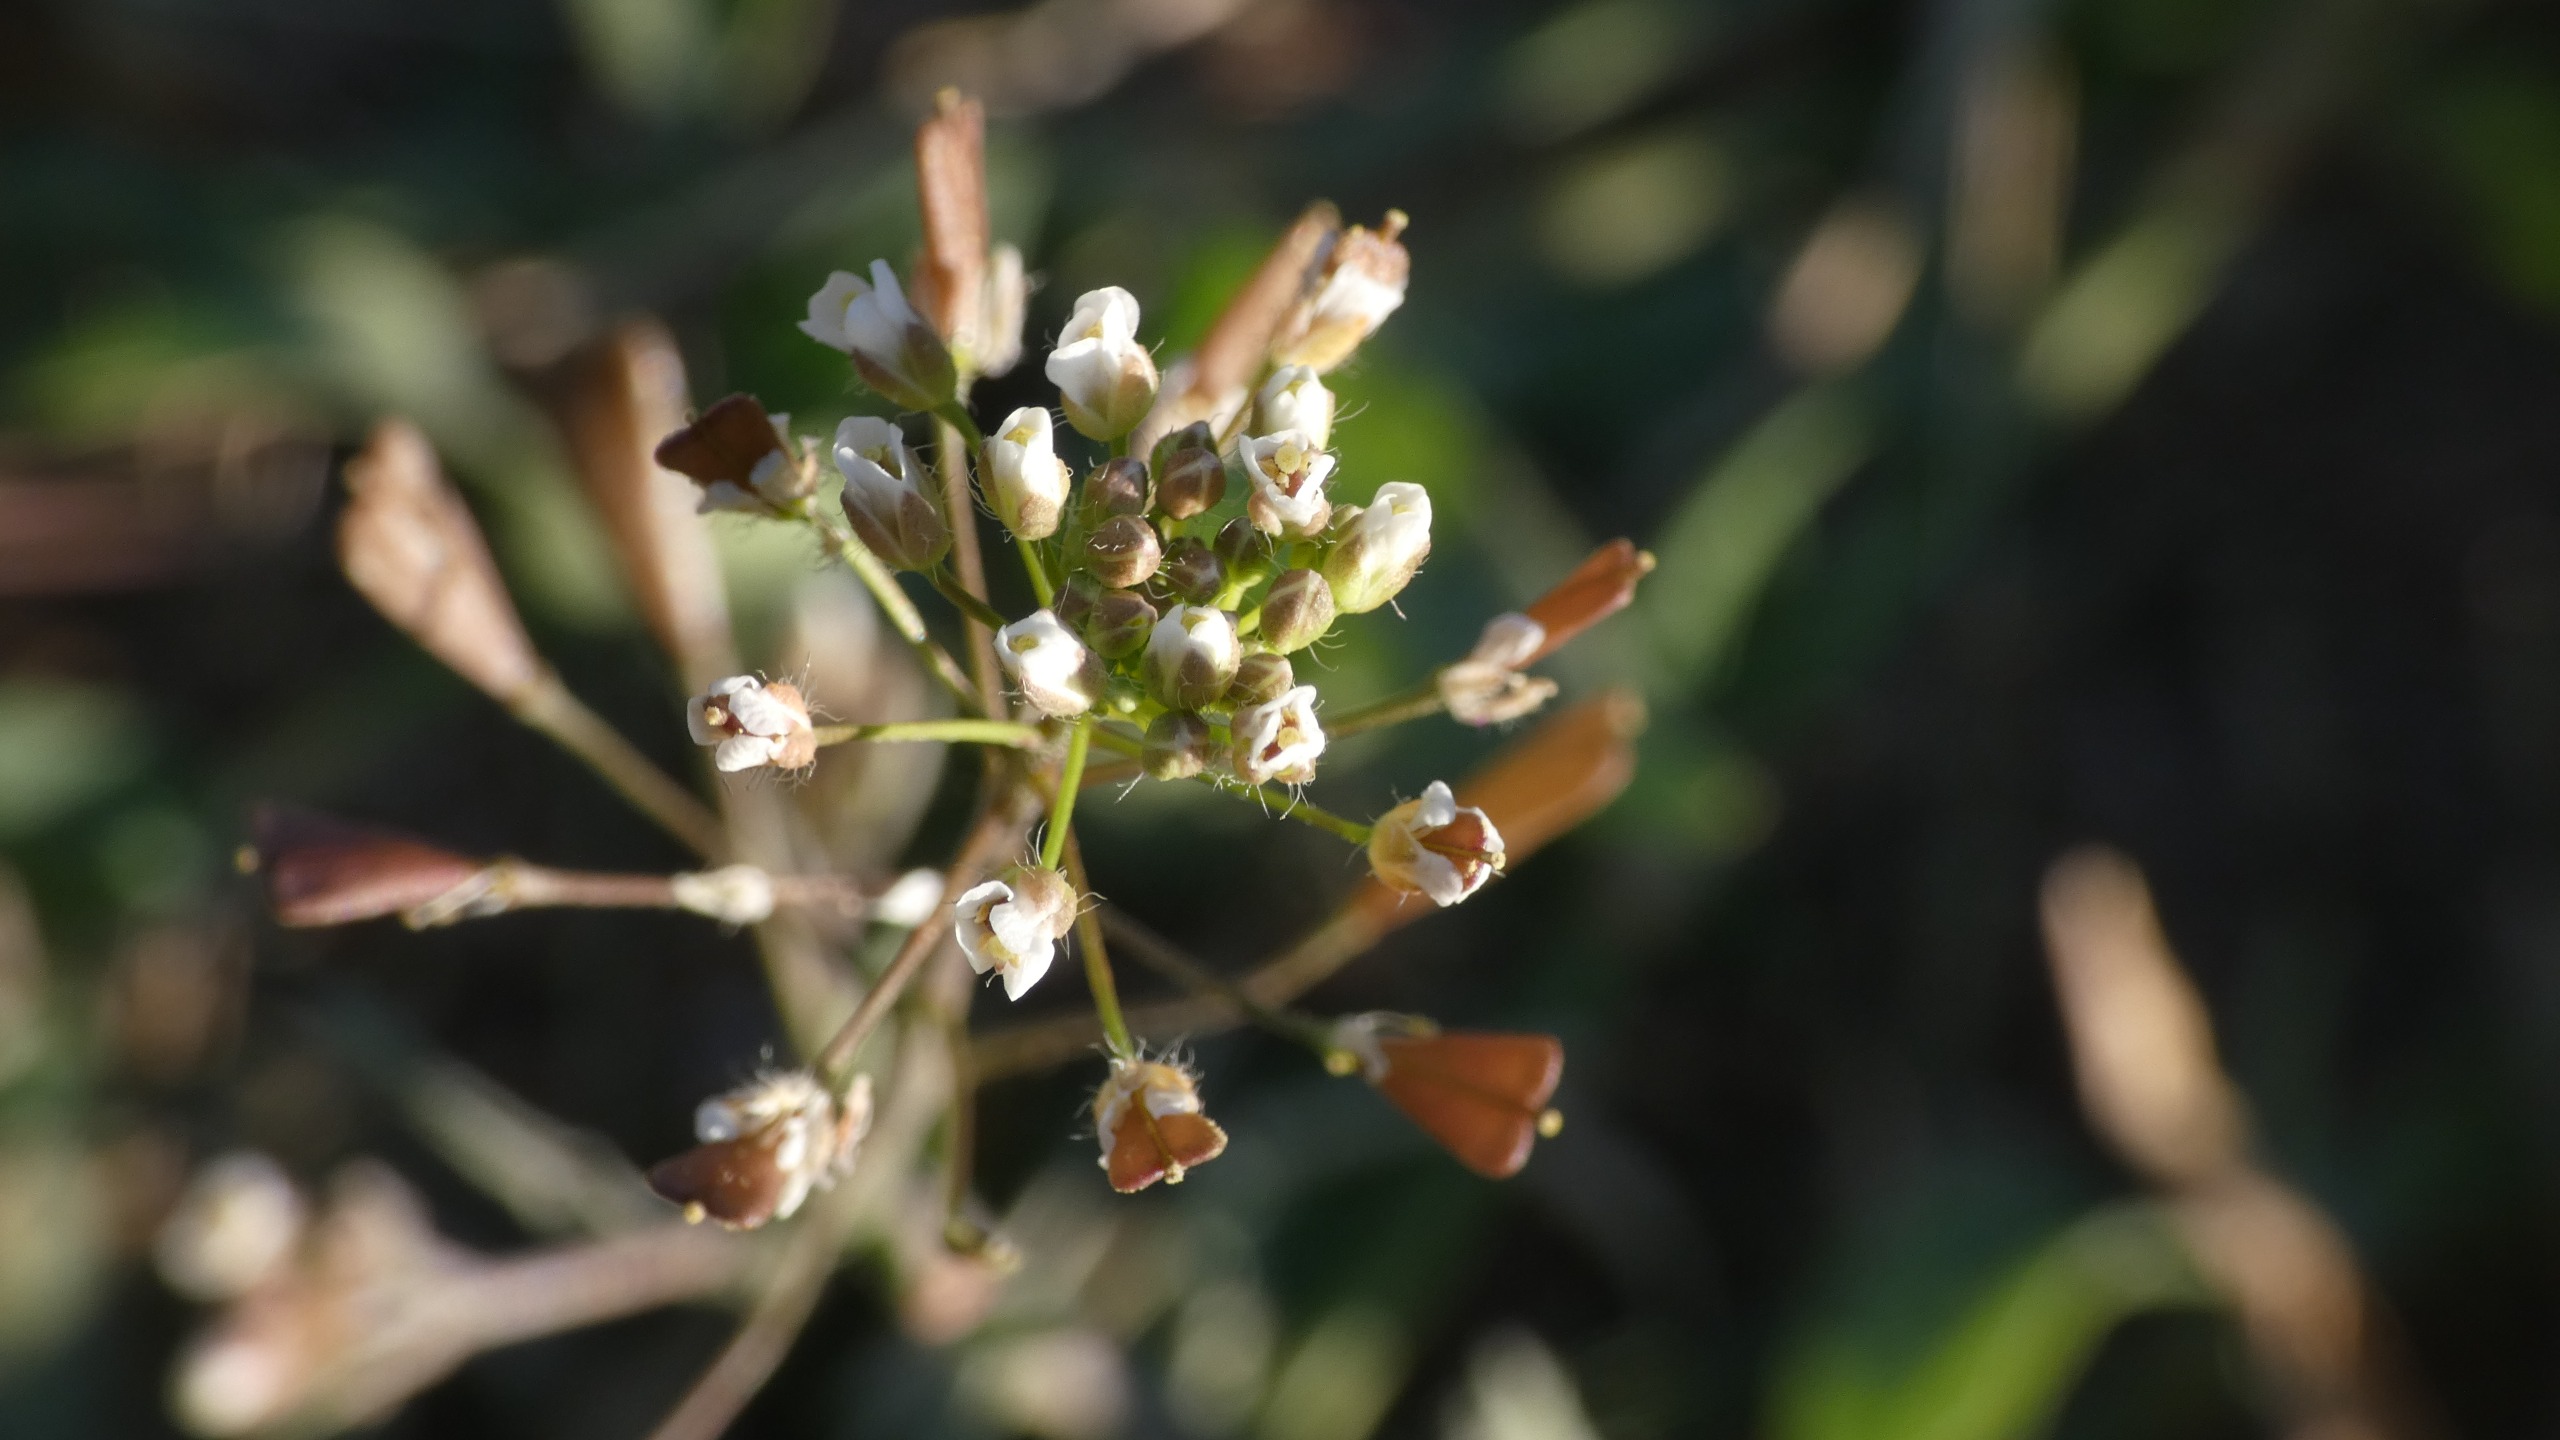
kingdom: Plantae
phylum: Tracheophyta
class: Magnoliopsida
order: Brassicales
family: Brassicaceae
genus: Capsella
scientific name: Capsella bursa-pastoris
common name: Hyrdetaske
